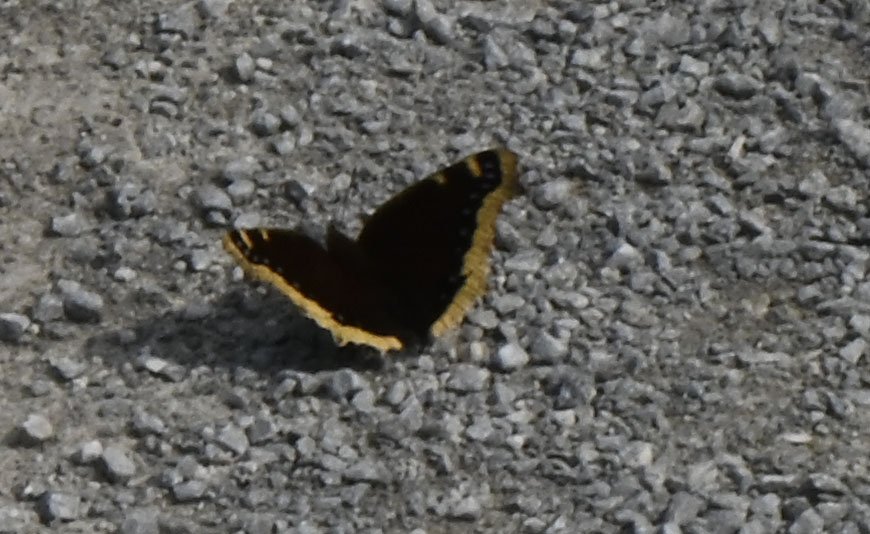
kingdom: Animalia
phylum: Arthropoda
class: Insecta
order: Lepidoptera
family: Nymphalidae
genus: Nymphalis
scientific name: Nymphalis antiopa
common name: Mourning Cloak
